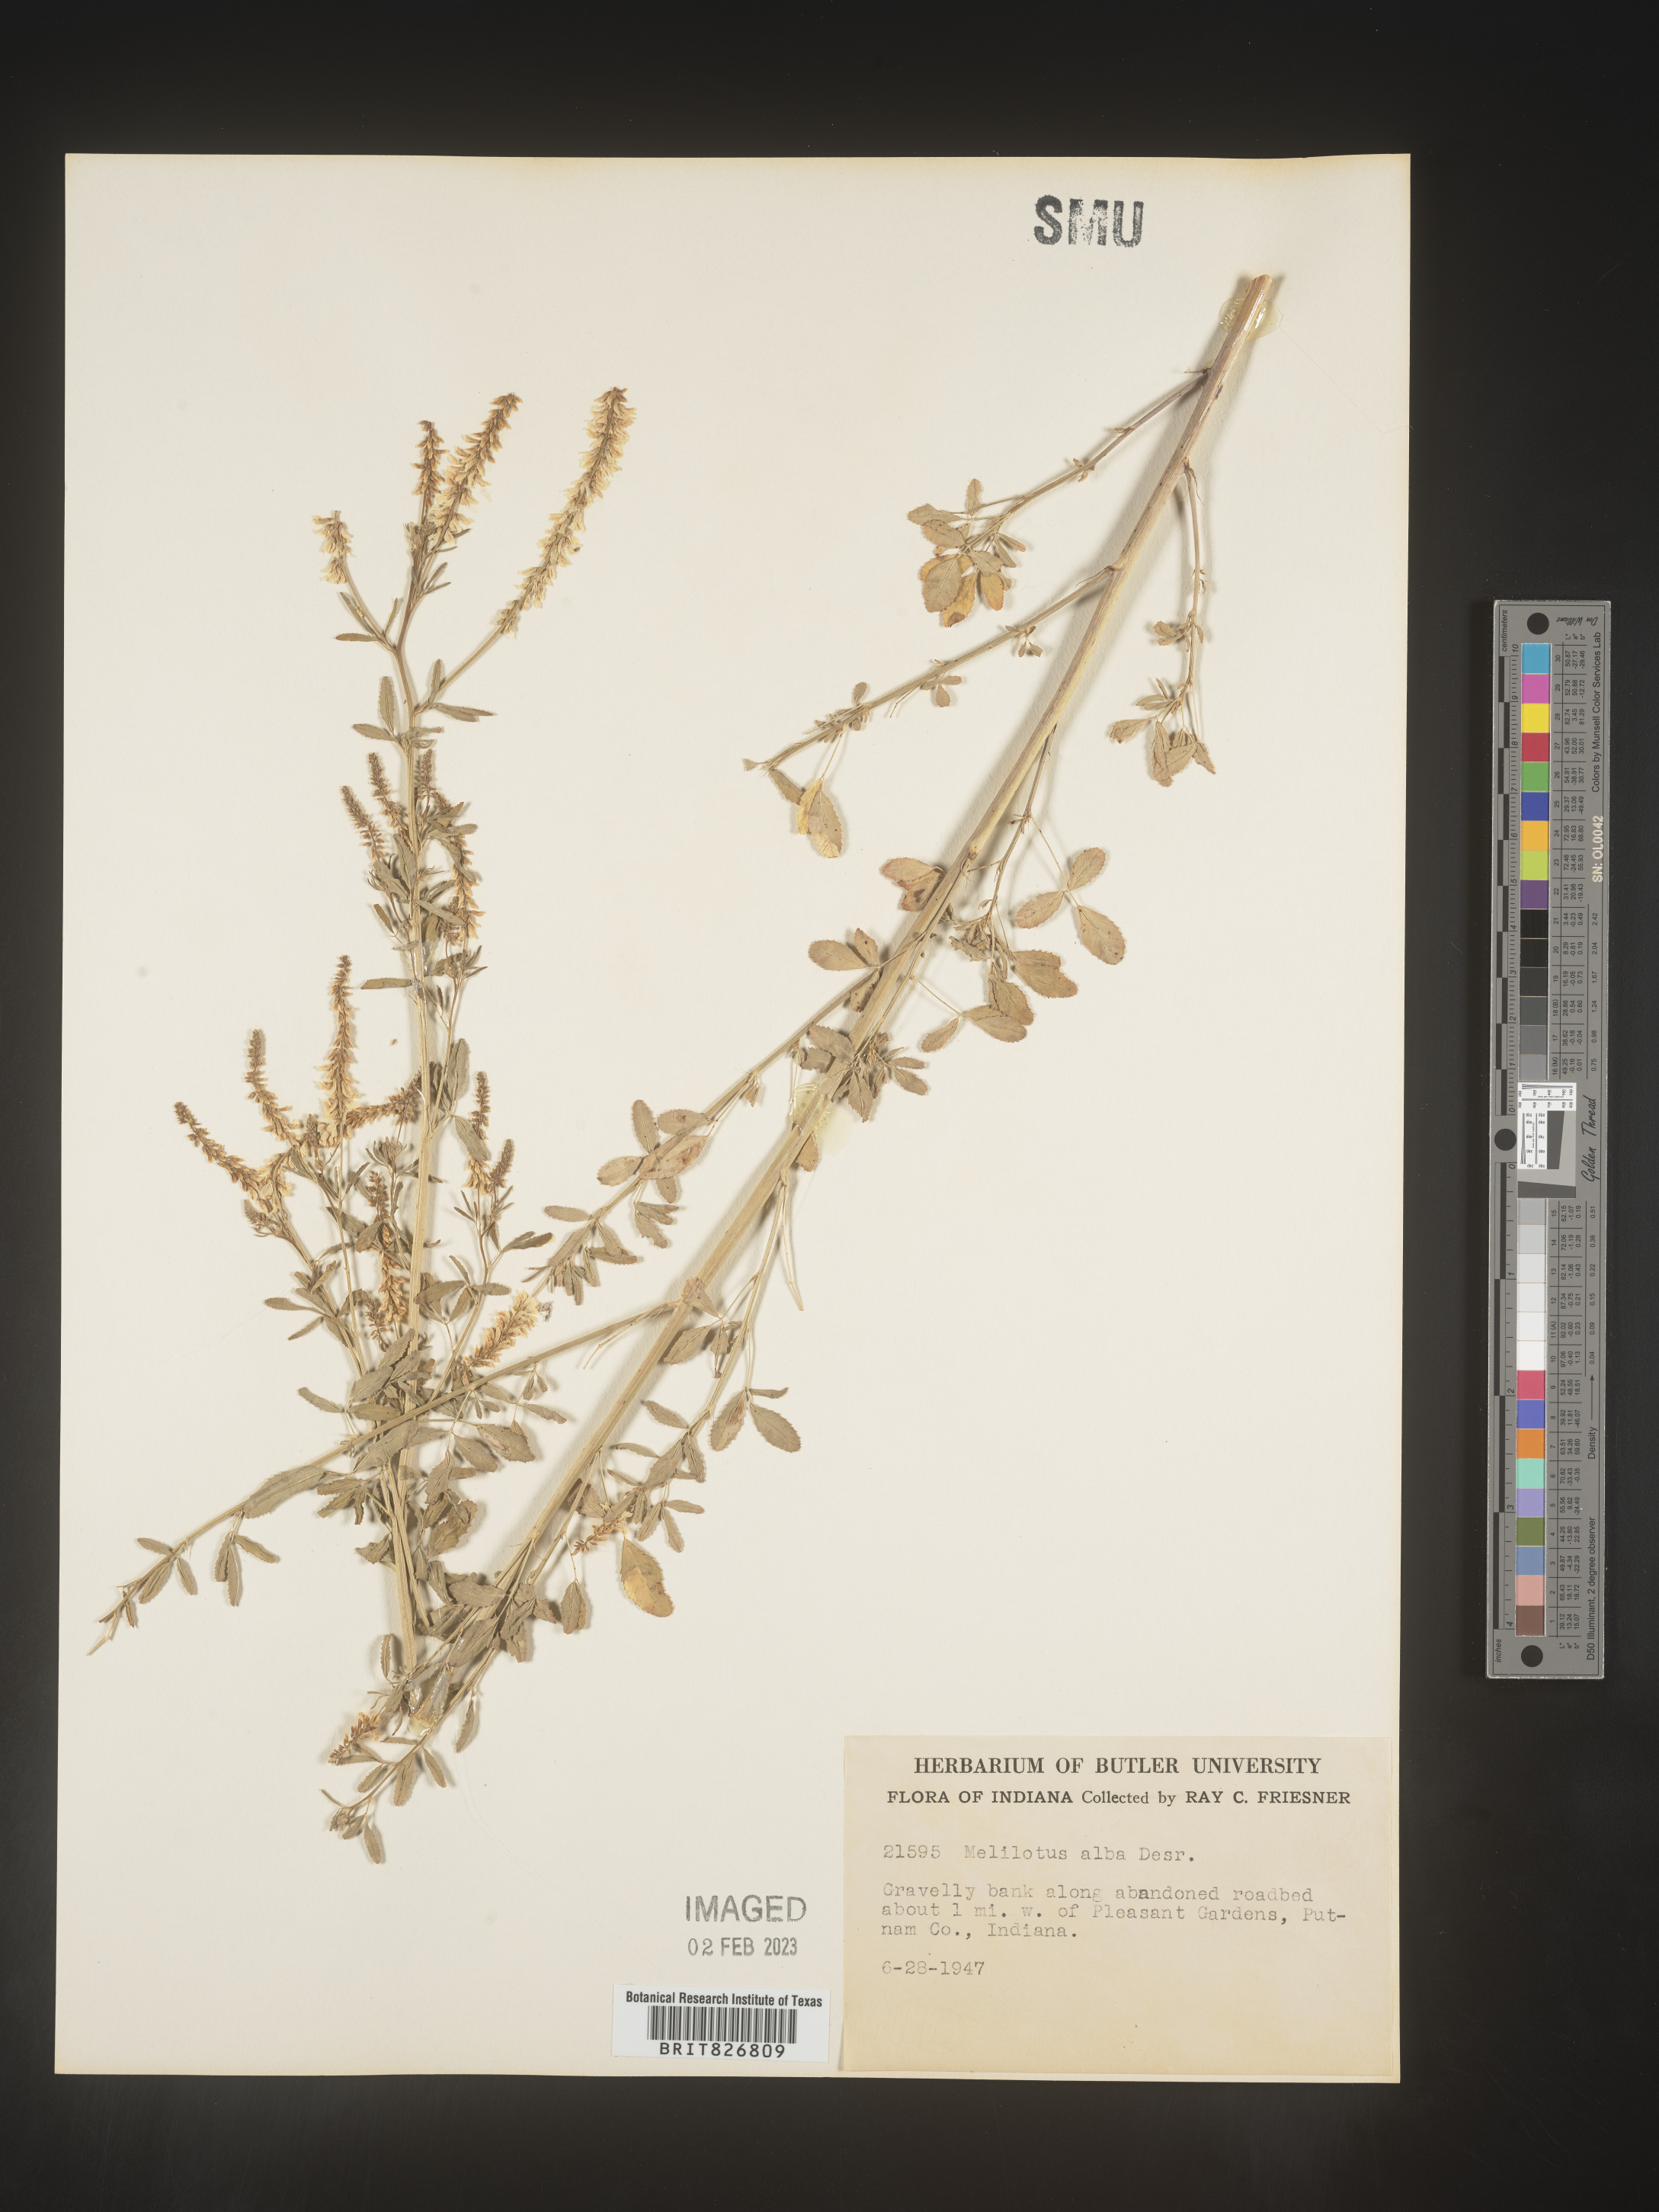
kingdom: Plantae
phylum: Tracheophyta
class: Magnoliopsida
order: Fabales
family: Fabaceae
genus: Melilotus
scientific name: Melilotus albus
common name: White melilot
